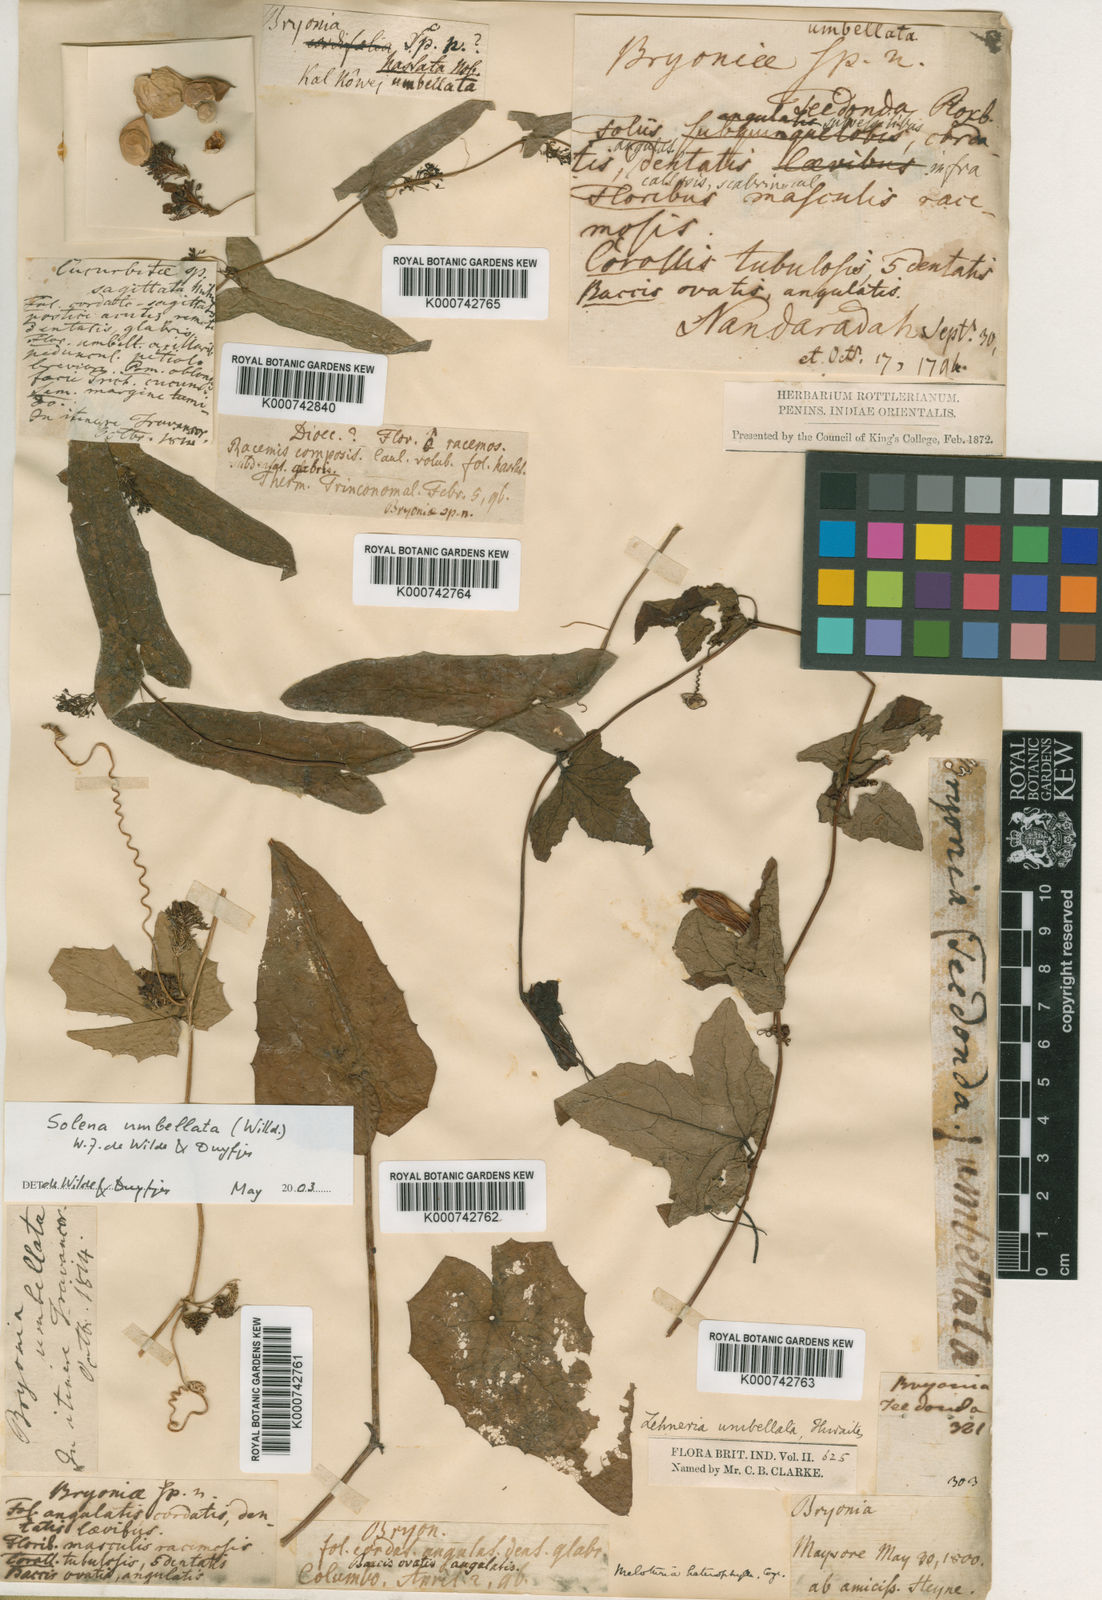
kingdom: Plantae
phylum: Tracheophyta
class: Magnoliopsida
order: Cucurbitales
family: Cucurbitaceae
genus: Solena
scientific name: Solena umbellata
